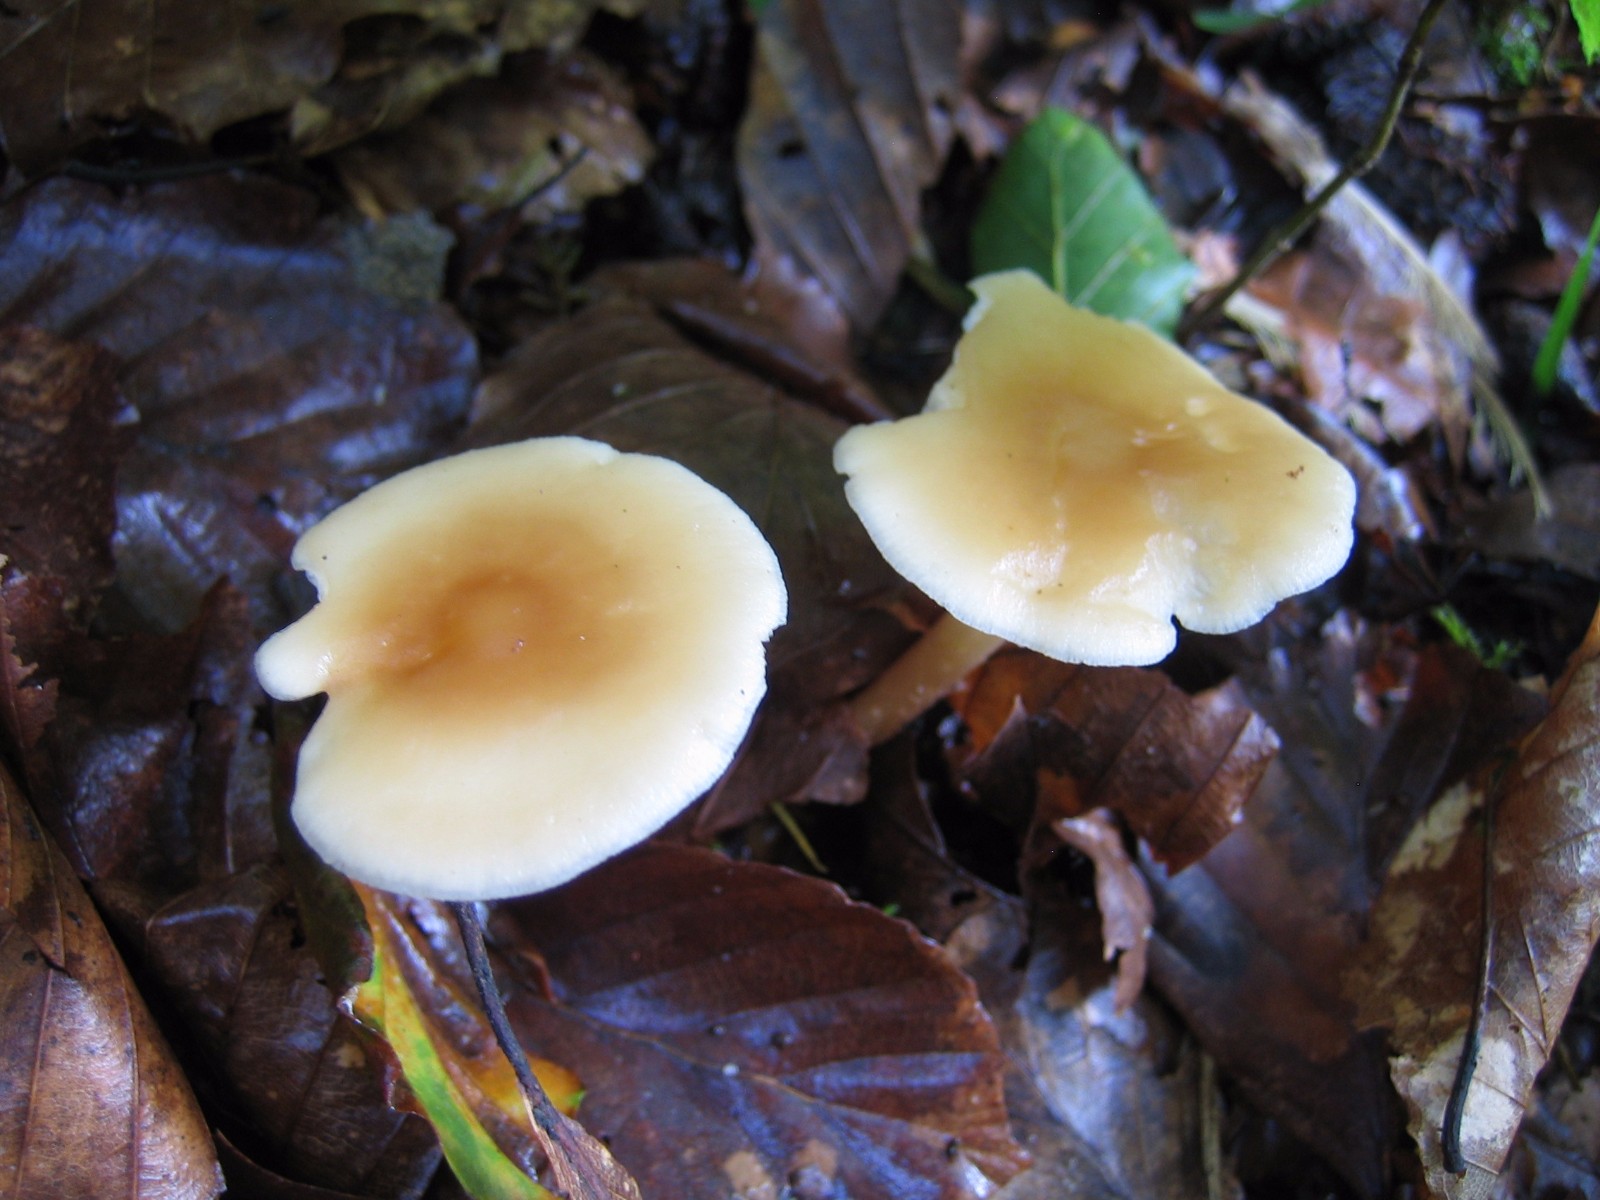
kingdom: Fungi
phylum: Basidiomycota
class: Agaricomycetes
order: Agaricales
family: Omphalotaceae
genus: Gymnopus
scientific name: Gymnopus dryophilus
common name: løv-fladhat
